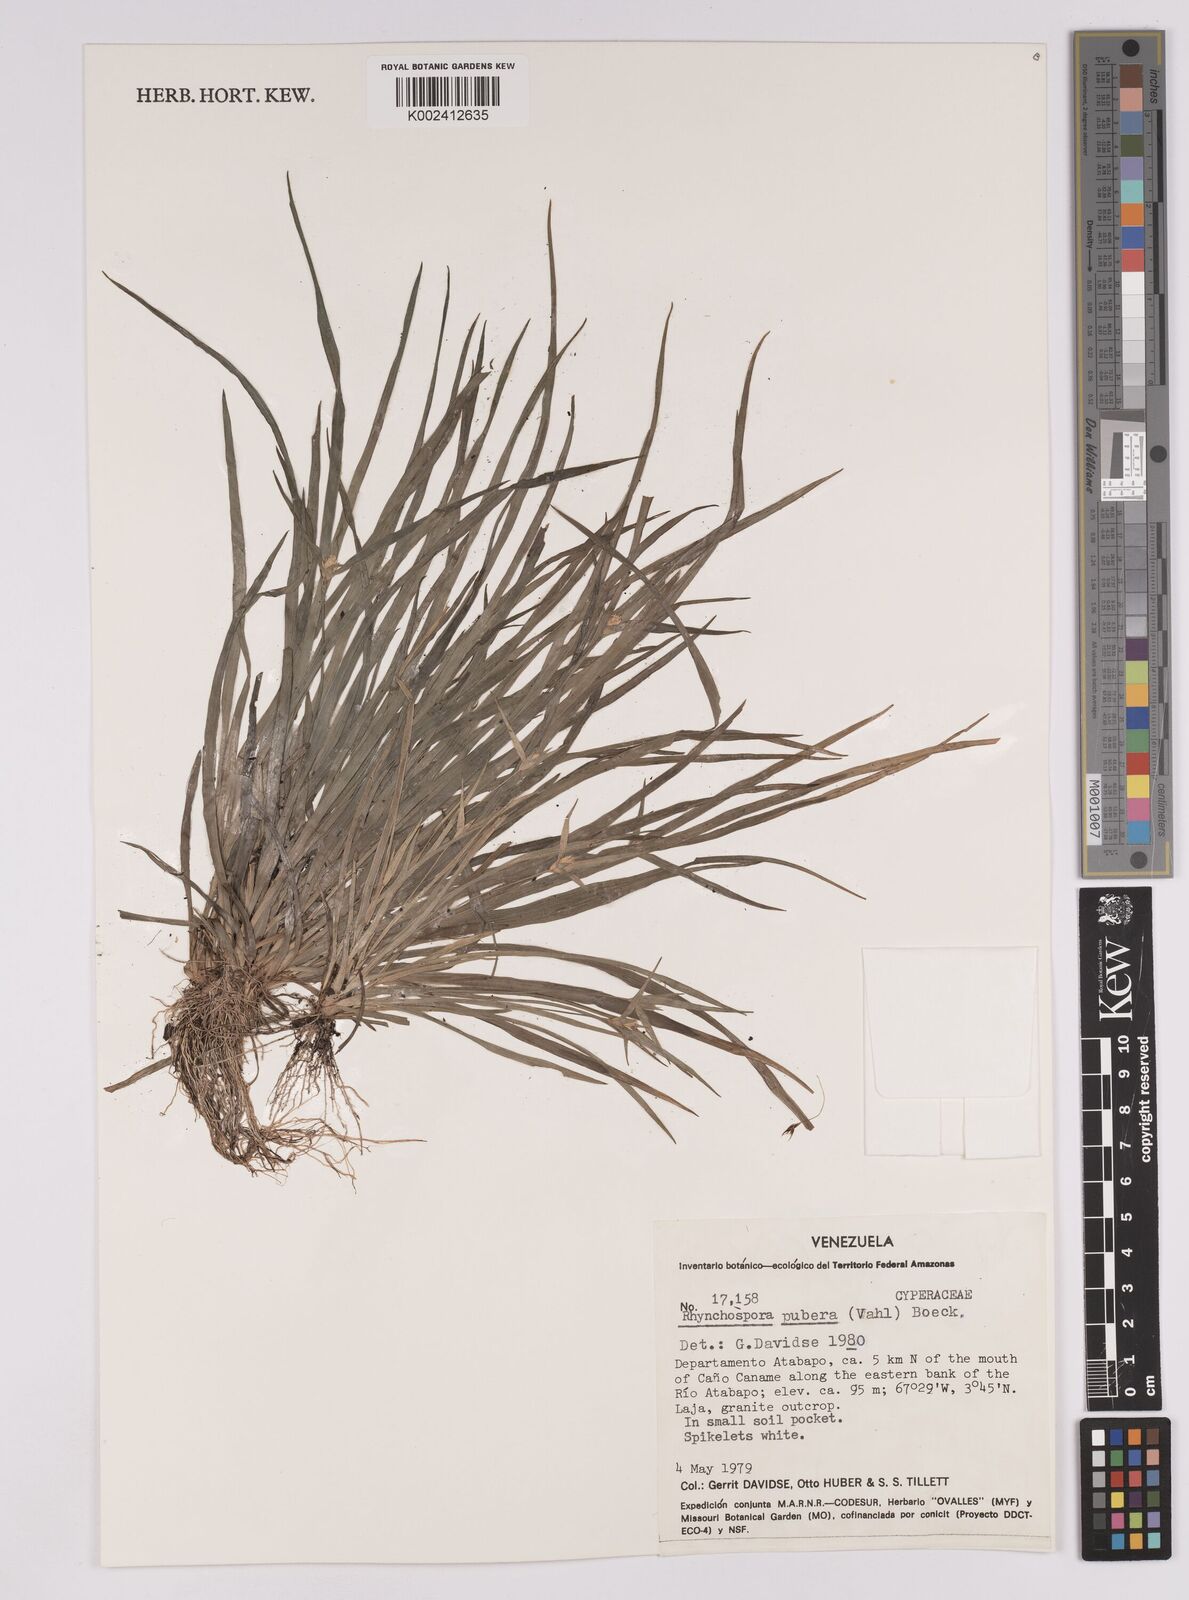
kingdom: Plantae
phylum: Tracheophyta
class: Liliopsida
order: Poales
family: Cyperaceae
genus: Rhynchospora
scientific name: Rhynchospora pubera
